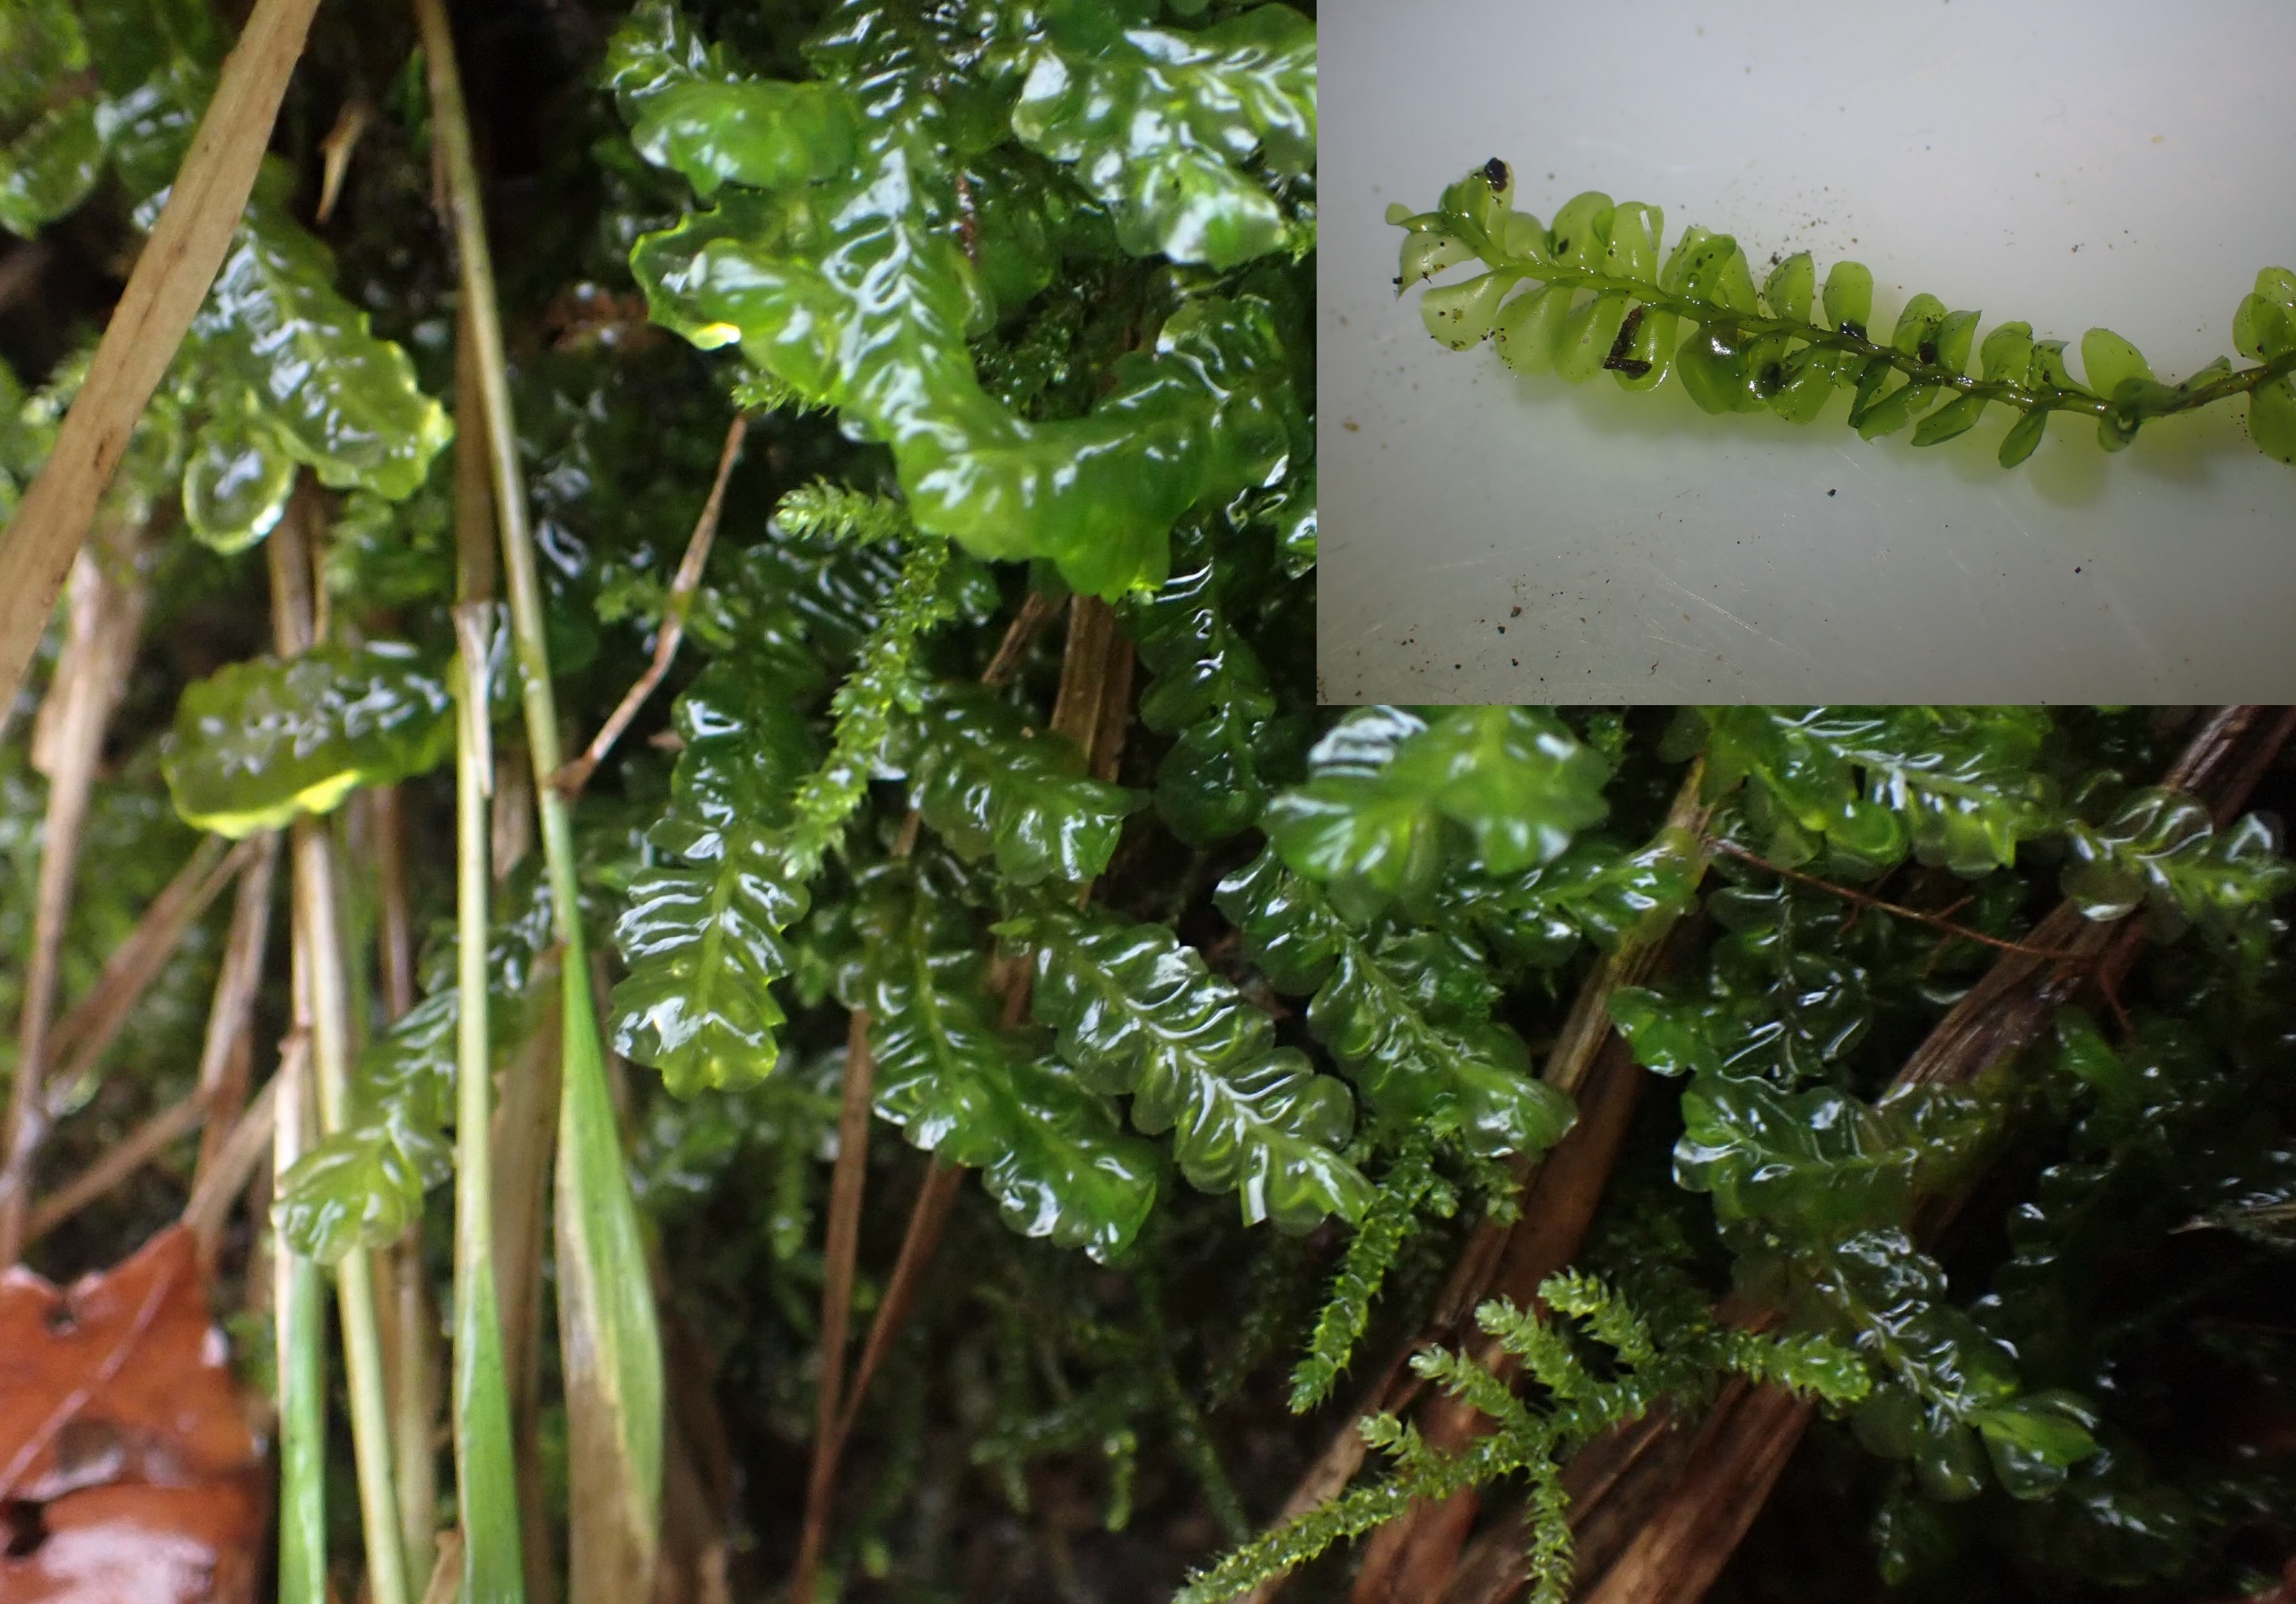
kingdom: Plantae
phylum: Marchantiophyta
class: Jungermanniopsida
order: Jungermanniales
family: Plagiochilaceae
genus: Plagiochila
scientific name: Plagiochila asplenioides
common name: Radeløv-hindeblad
